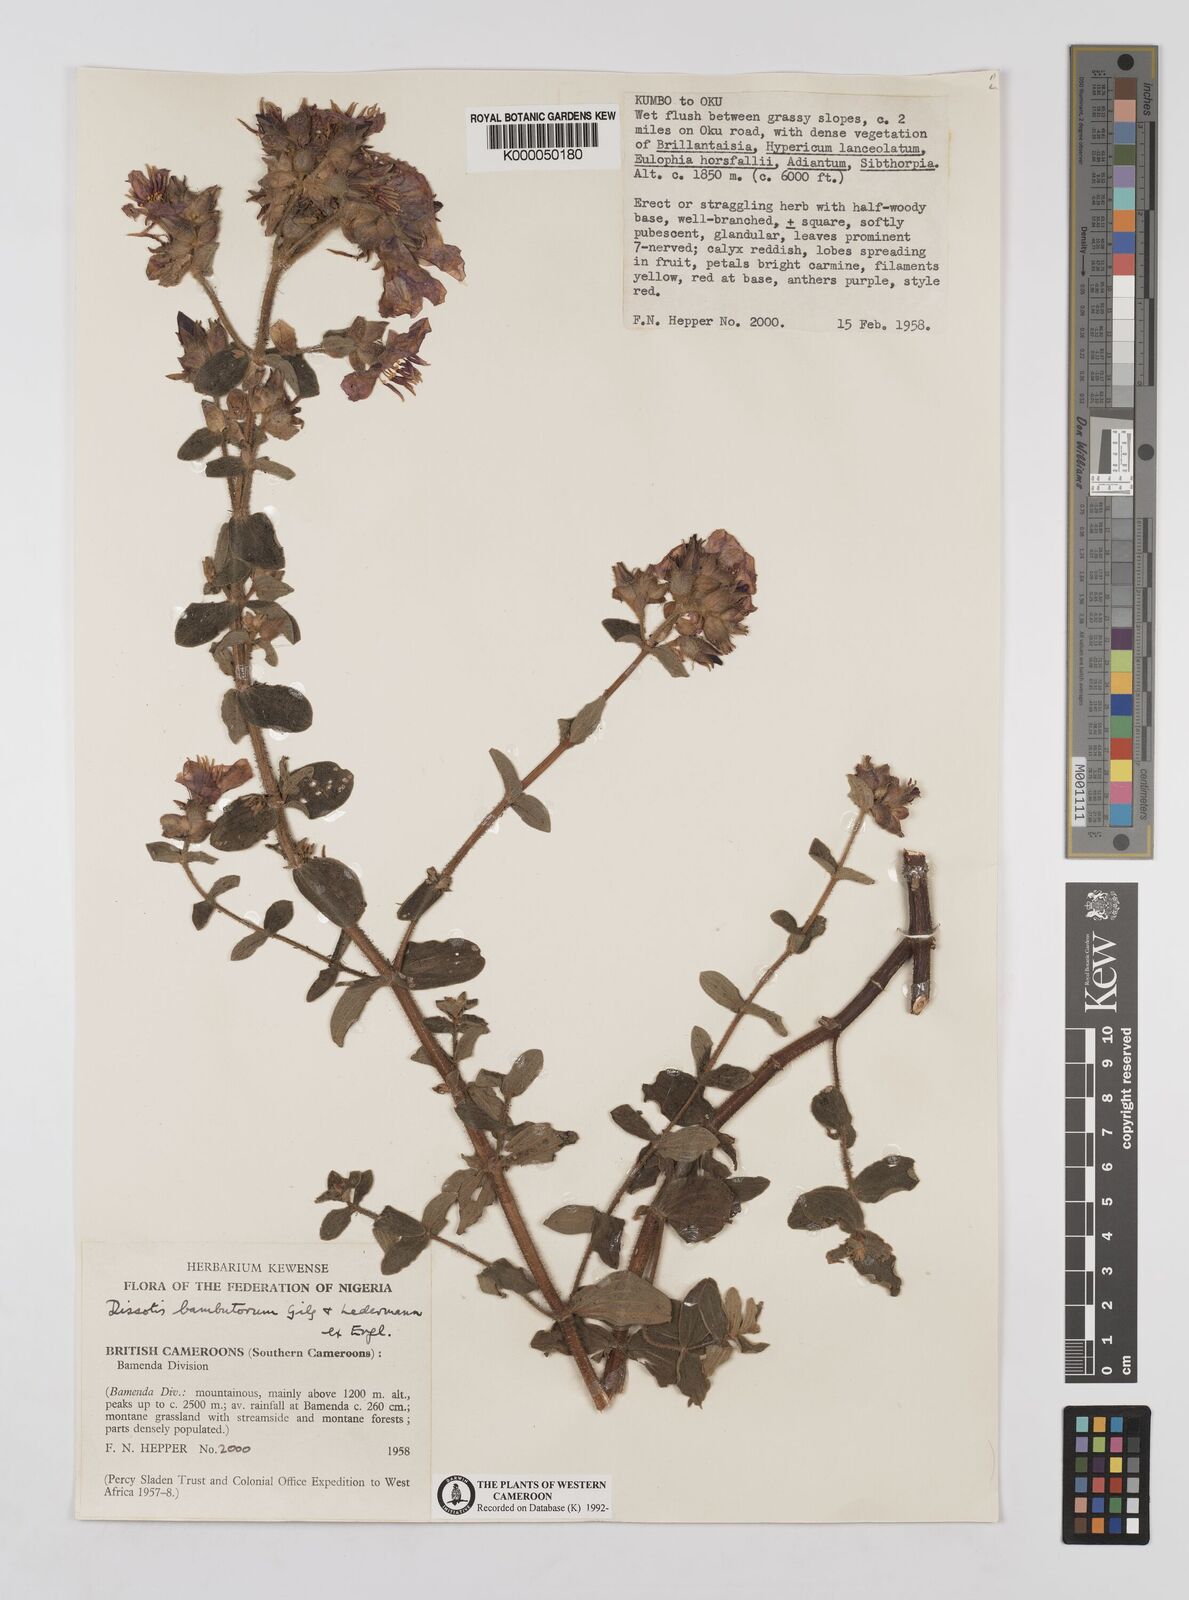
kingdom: Plantae
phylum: Tracheophyta
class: Magnoliopsida
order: Myrtales
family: Melastomataceae
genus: Argyrella
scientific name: Argyrella bambutorum
